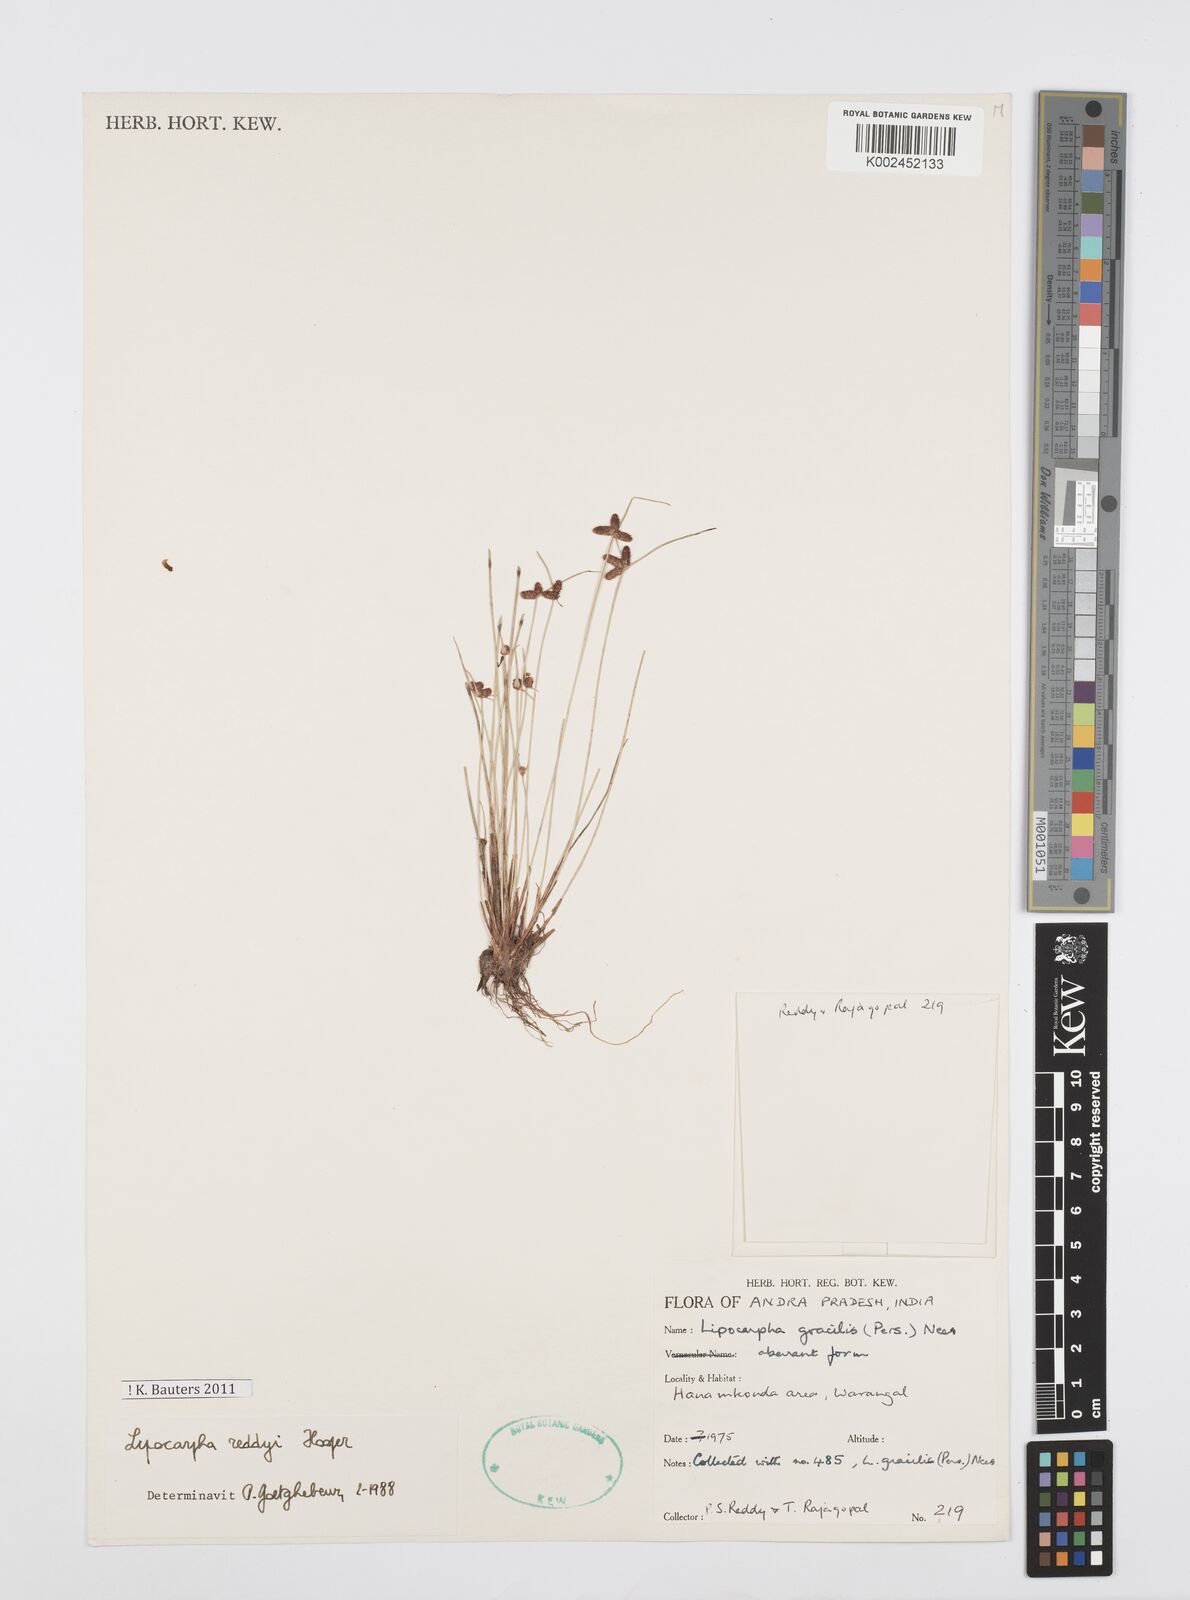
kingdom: Plantae
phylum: Tracheophyta
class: Liliopsida
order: Poales
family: Cyperaceae
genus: Cyperus
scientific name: Cyperus reddyi
